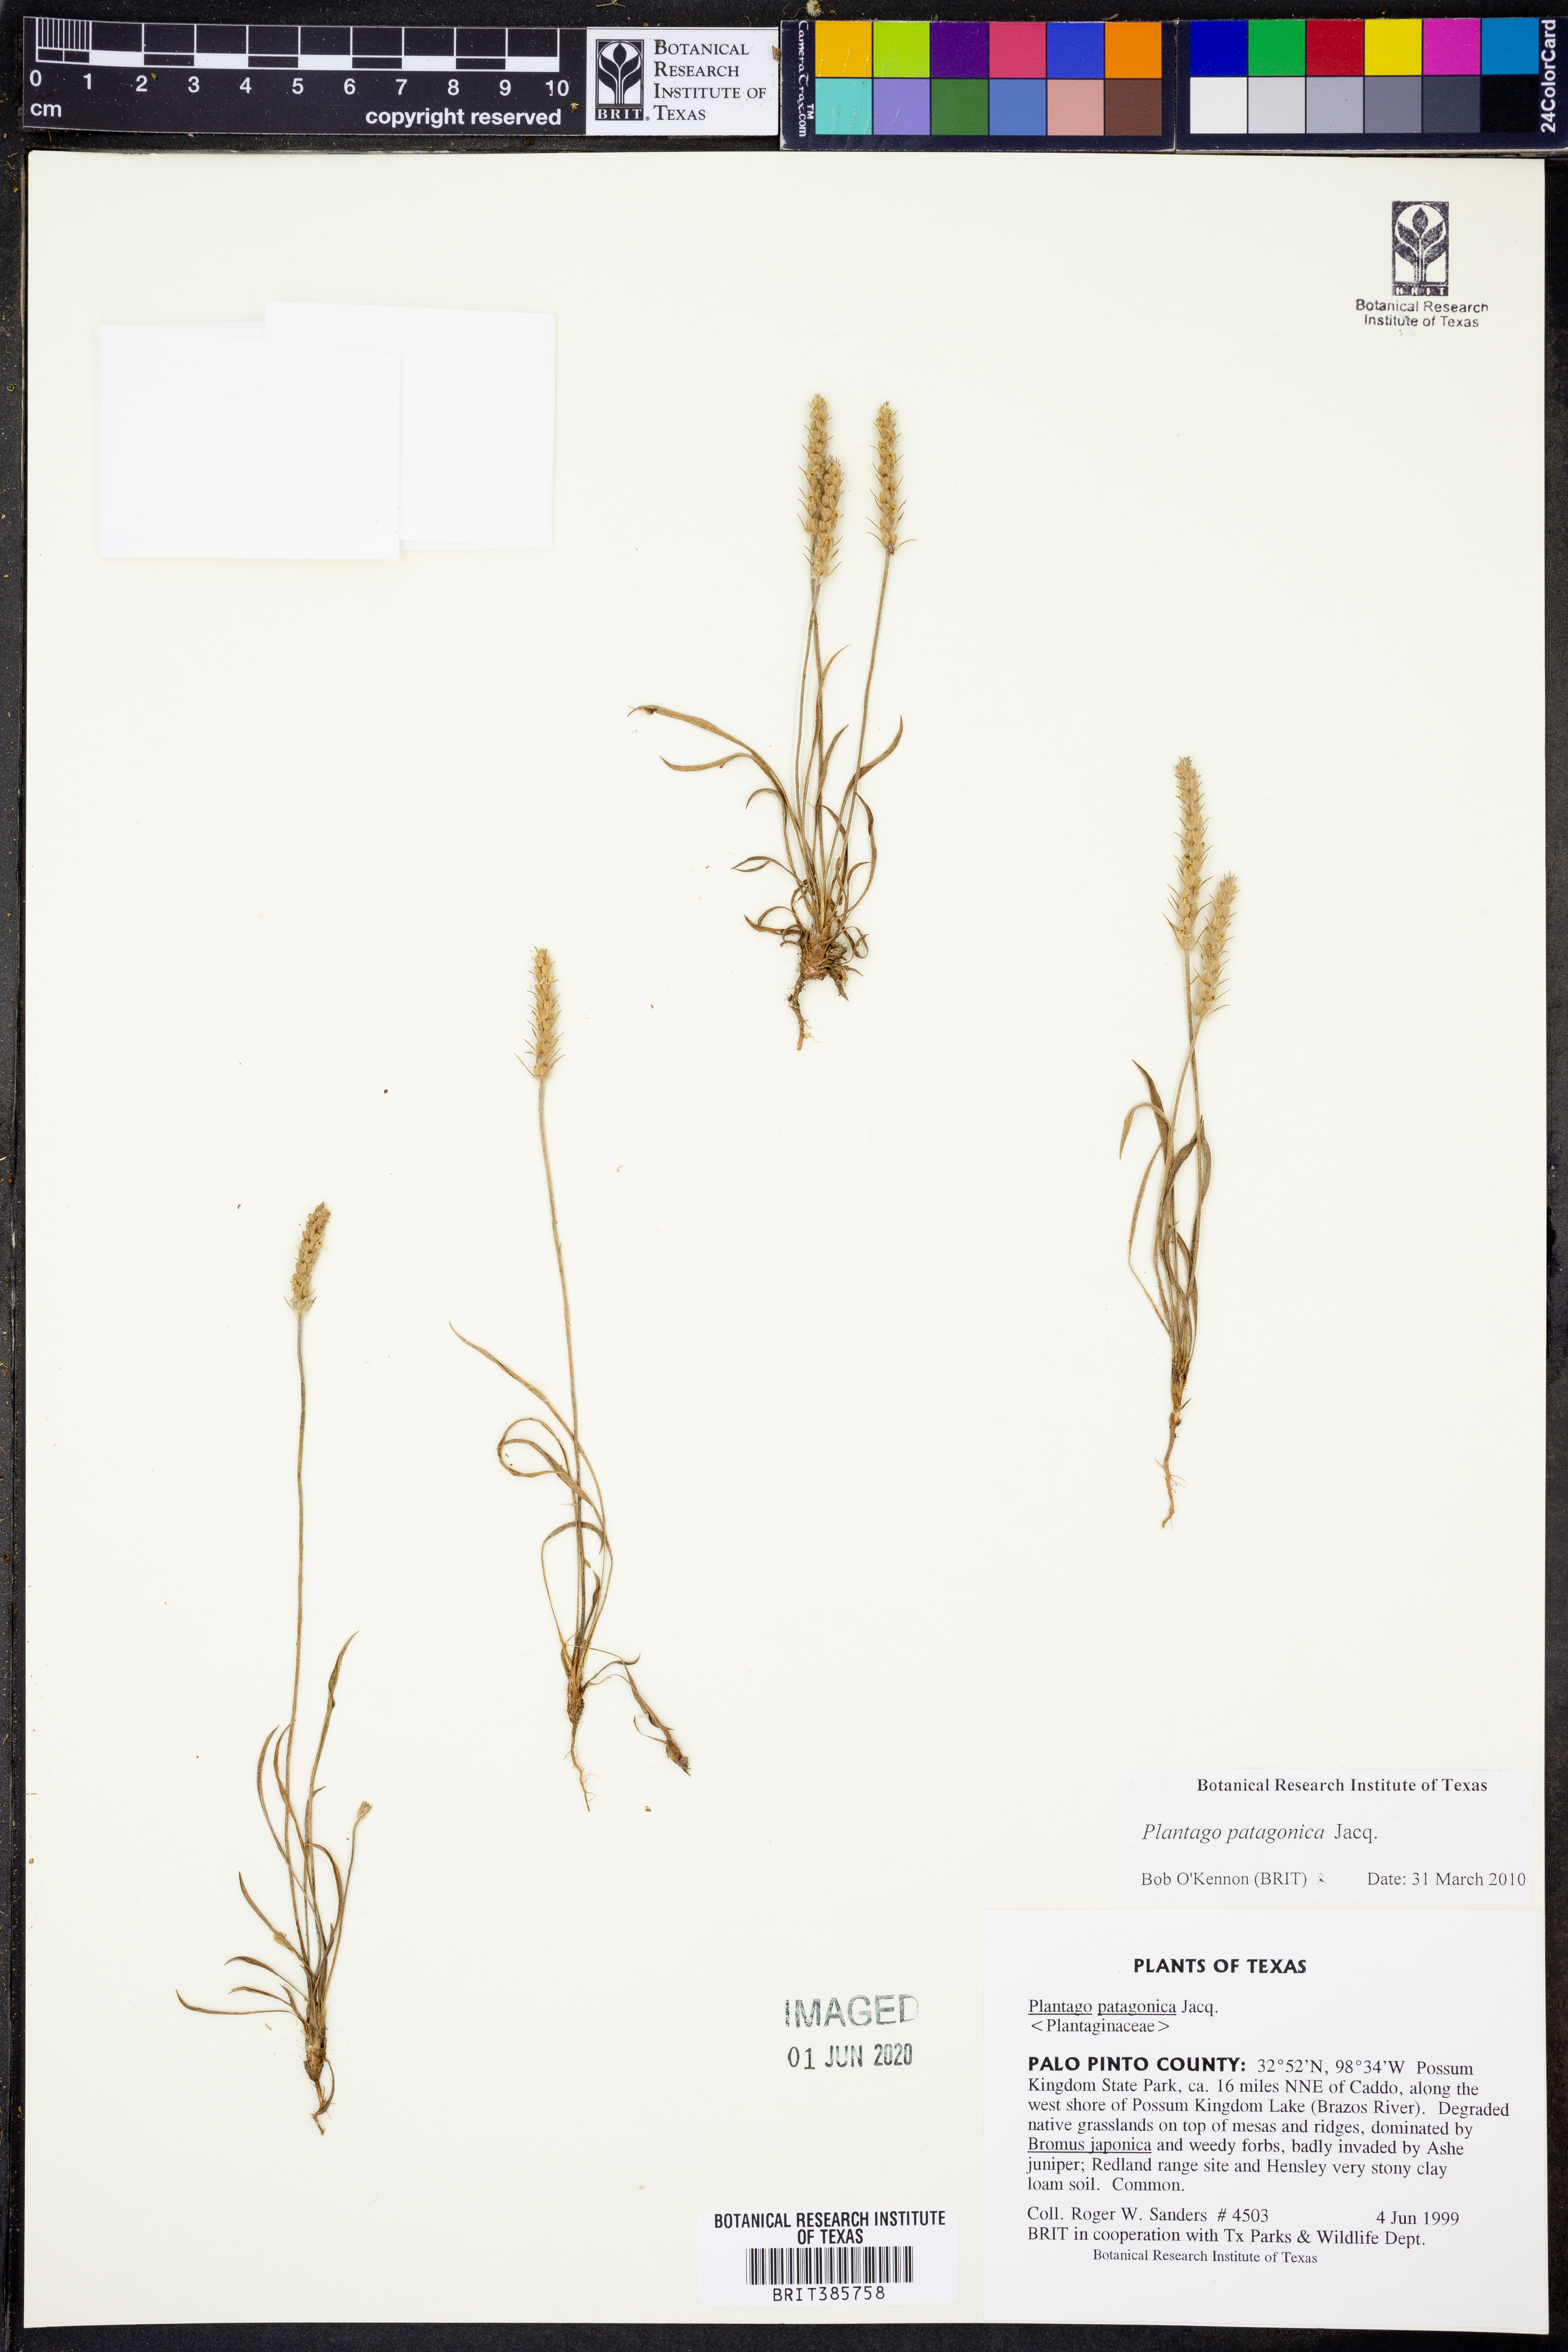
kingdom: Plantae
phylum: Tracheophyta
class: Magnoliopsida
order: Lamiales
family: Plantaginaceae
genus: Plantago
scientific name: Plantago patagonica
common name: Patagonia indian-wheat
